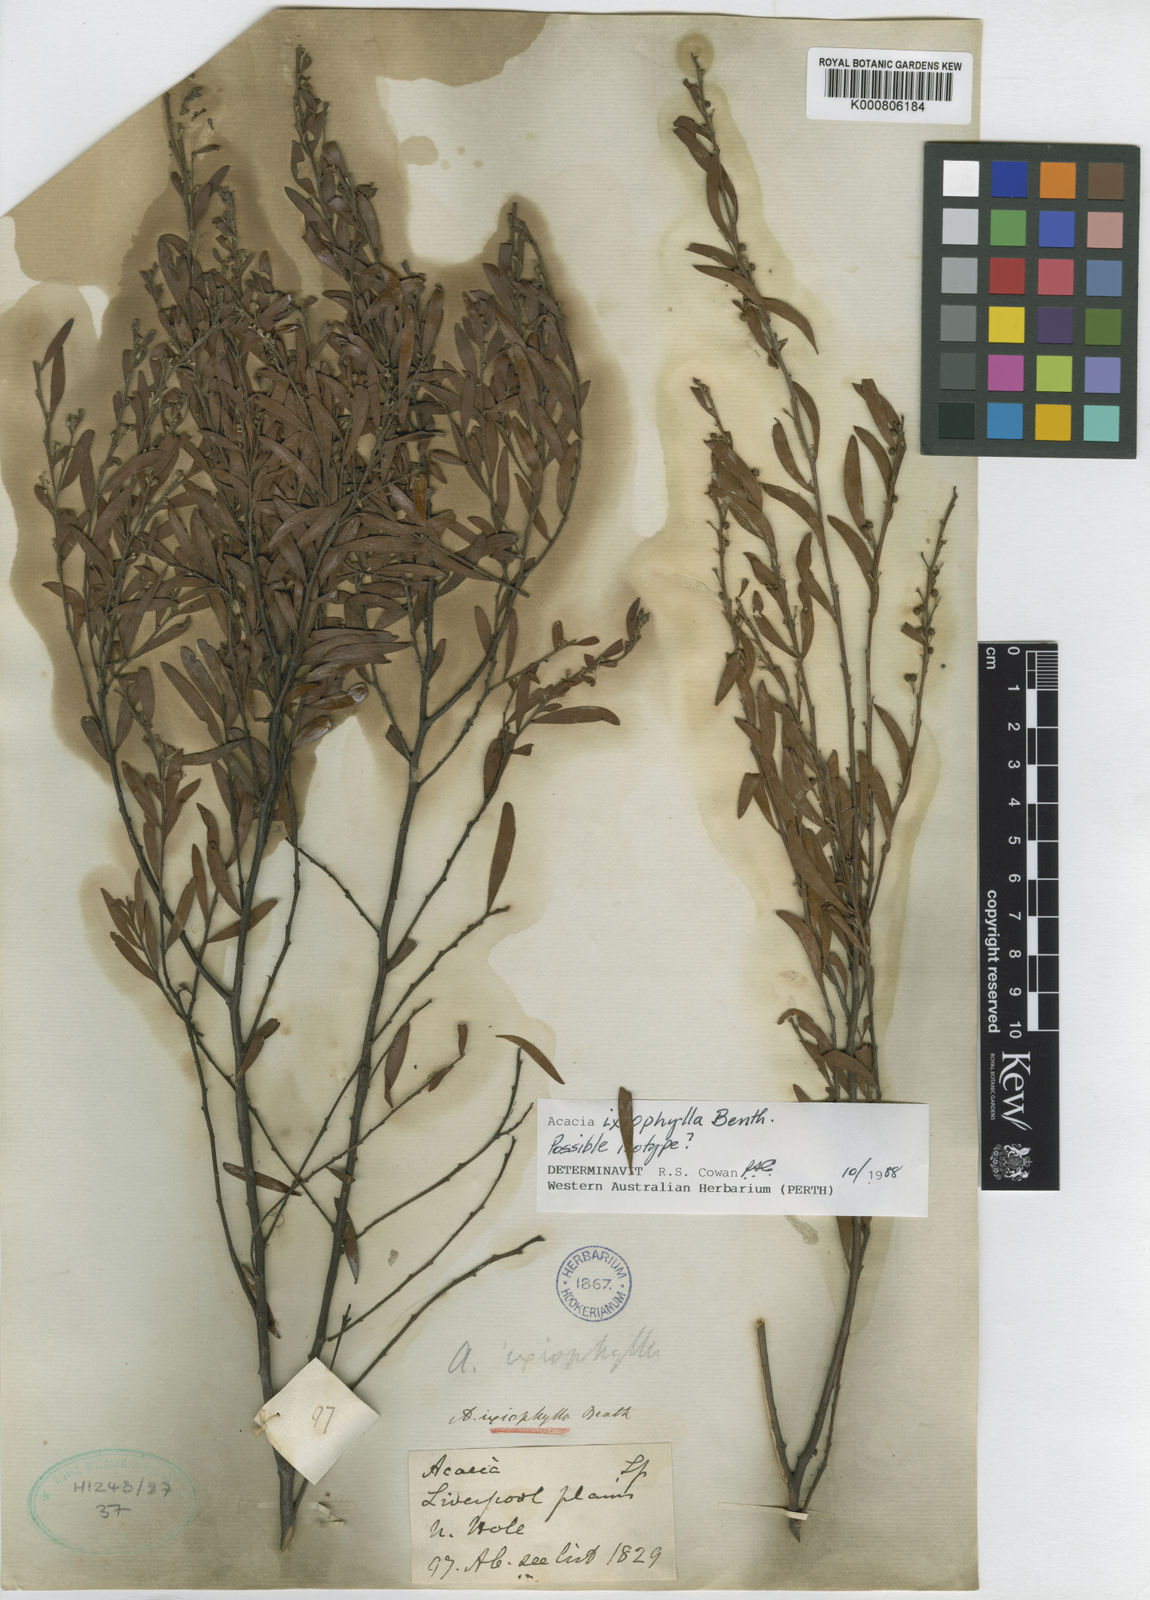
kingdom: Plantae
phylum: Tracheophyta
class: Magnoliopsida
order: Fabales
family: Fabaceae
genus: Acacia
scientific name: Acacia ixiophylla
